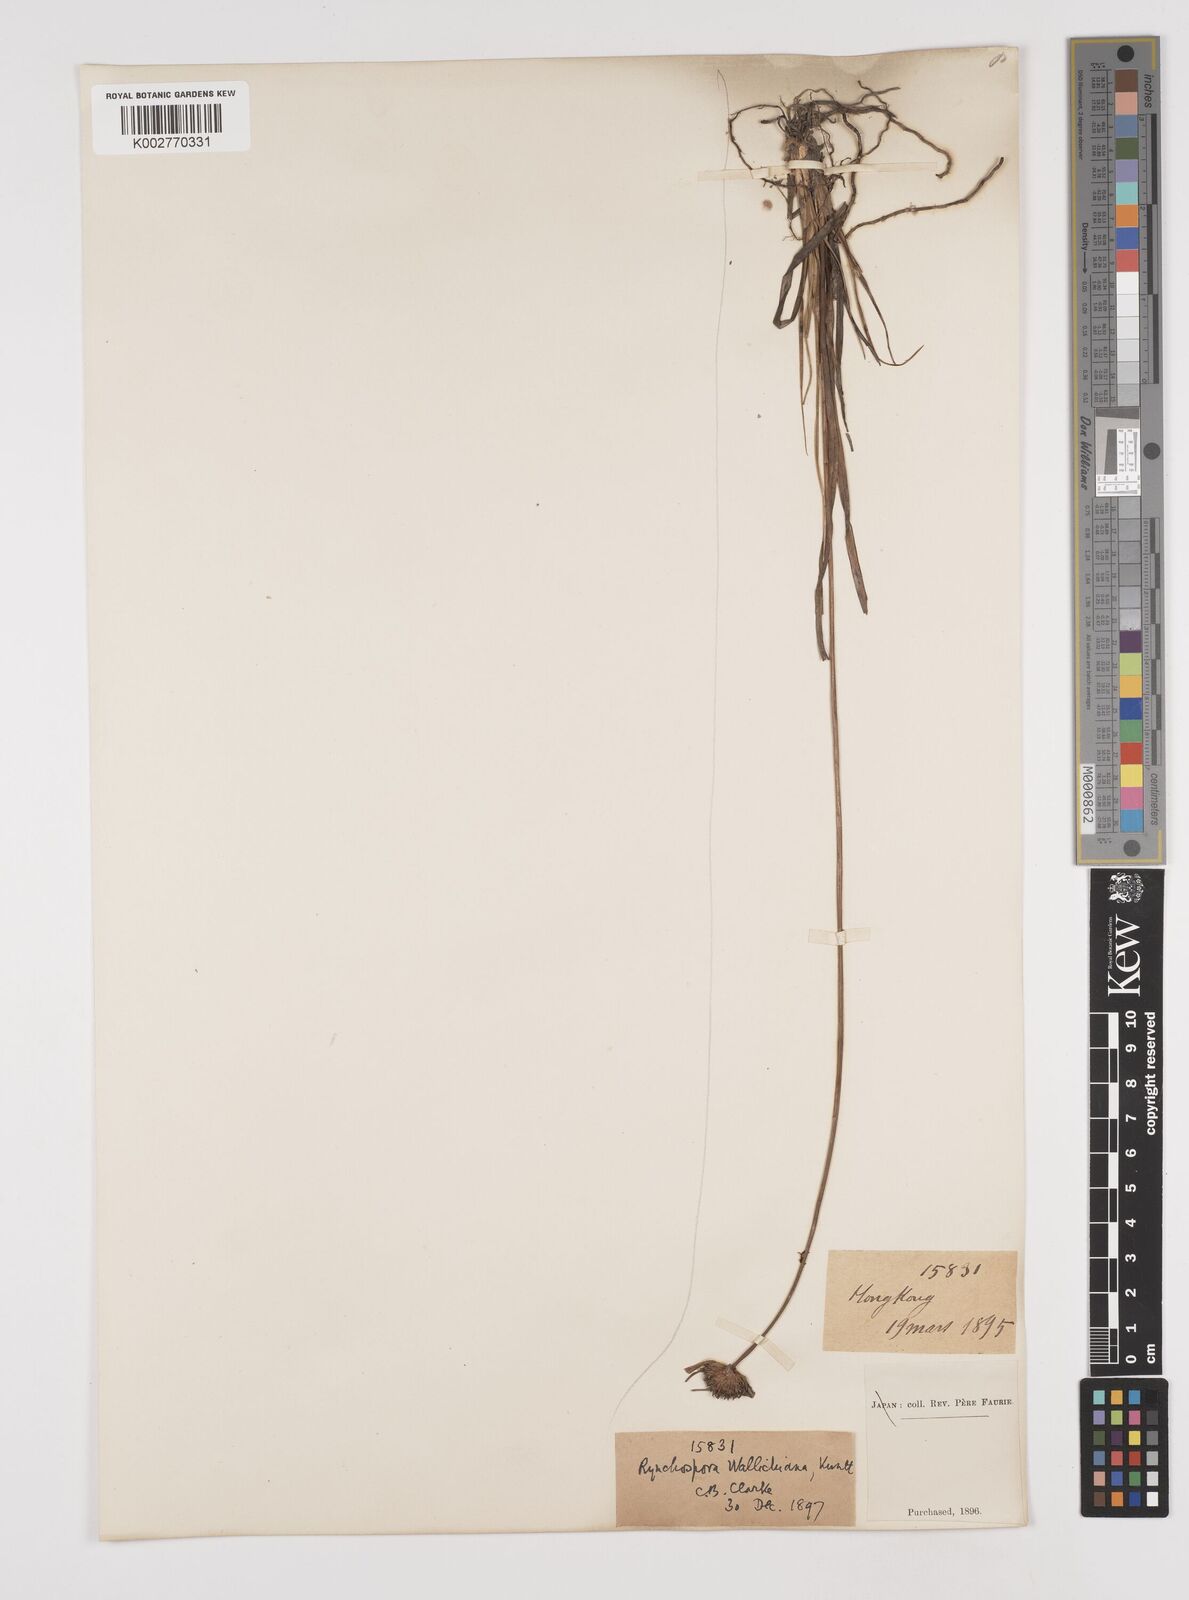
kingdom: Plantae
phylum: Tracheophyta
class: Liliopsida
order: Poales
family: Cyperaceae
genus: Rhynchospora
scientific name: Rhynchospora rubra
